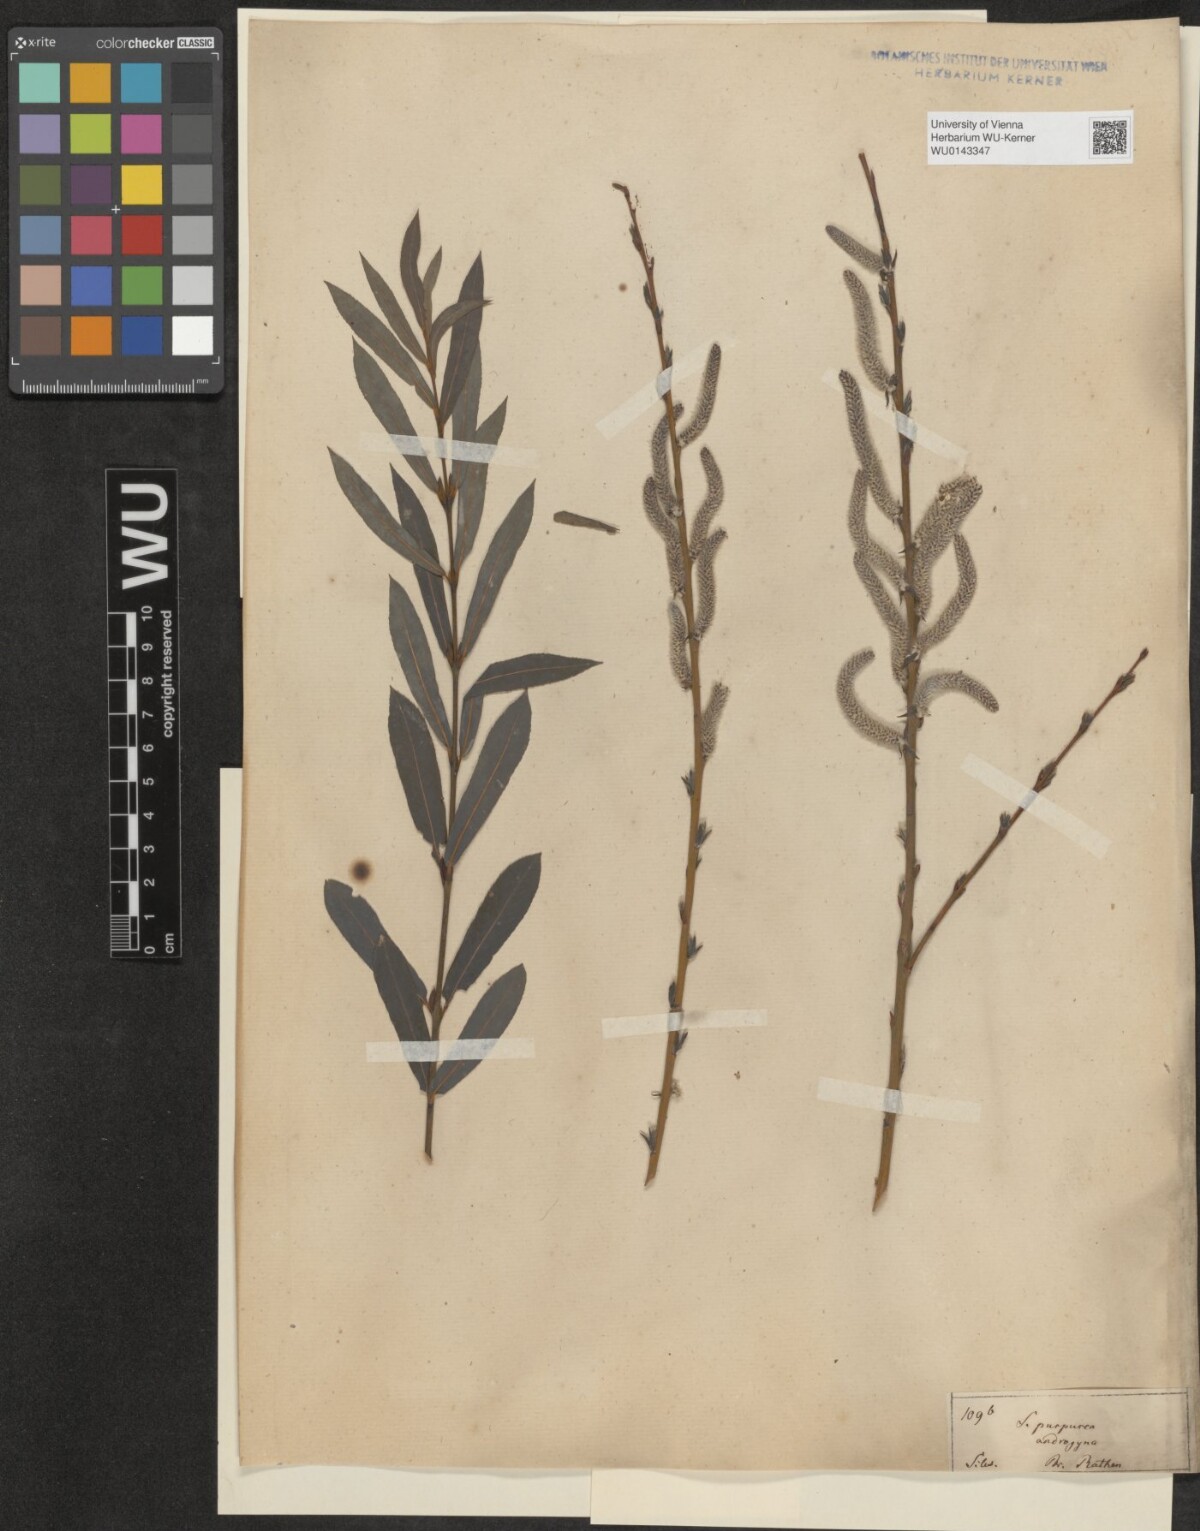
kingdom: Plantae
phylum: Tracheophyta
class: Magnoliopsida
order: Malpighiales
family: Salicaceae
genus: Salix
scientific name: Salix purpurea
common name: Purple willow
